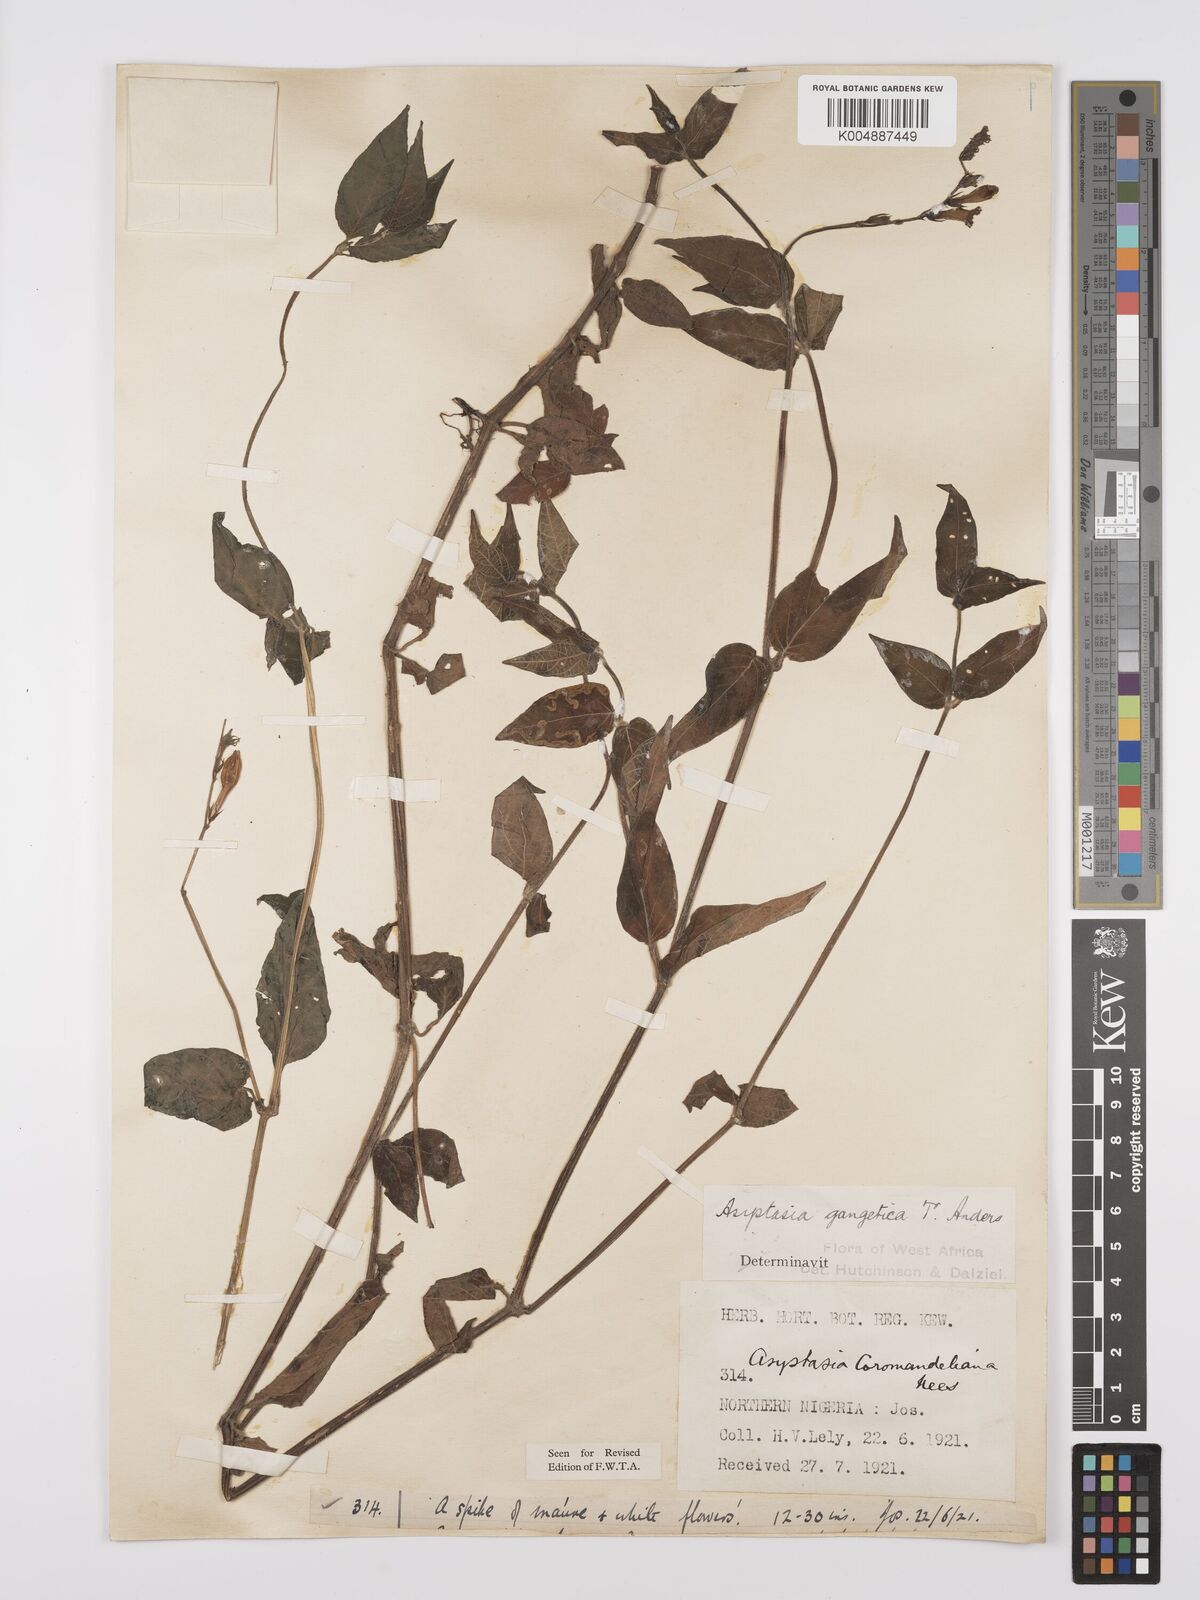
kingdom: Plantae
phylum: Tracheophyta
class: Magnoliopsida
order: Lamiales
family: Acanthaceae
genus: Asystasia
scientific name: Asystasia gangetica
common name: Chinese violet
